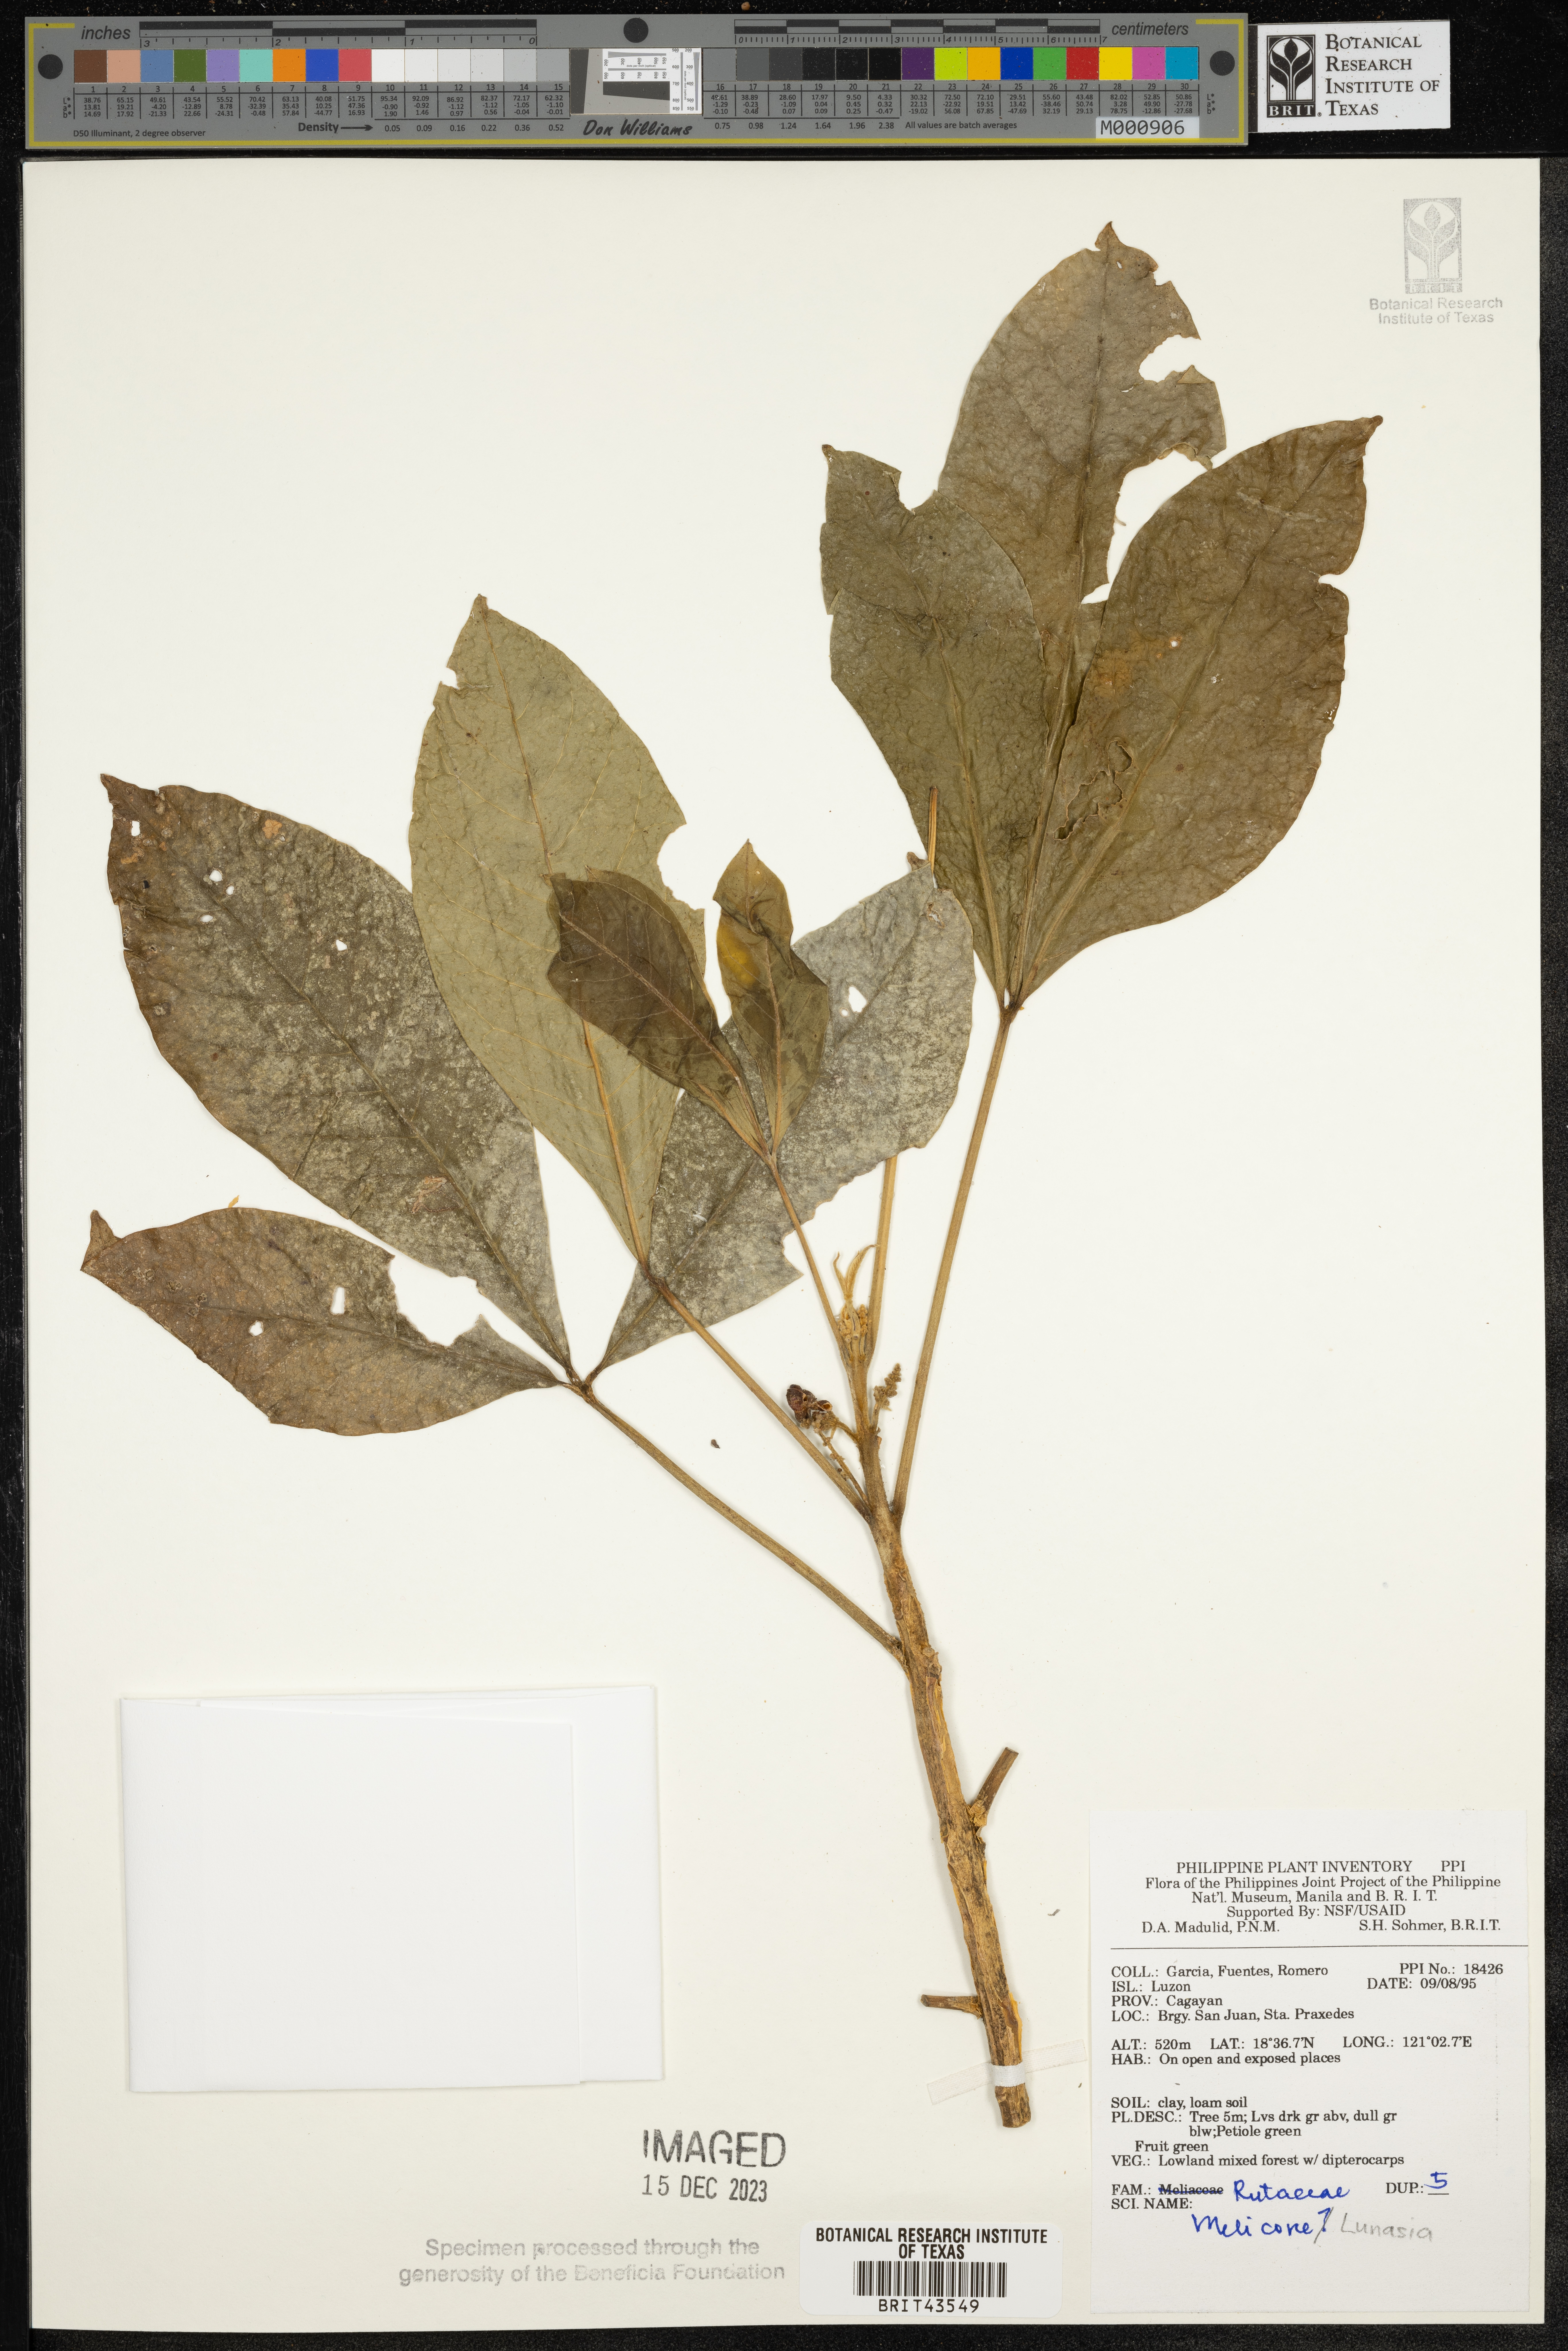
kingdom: Plantae
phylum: Tracheophyta
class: Magnoliopsida
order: Sapindales
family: Rutaceae
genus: Melicope
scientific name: Melicope
